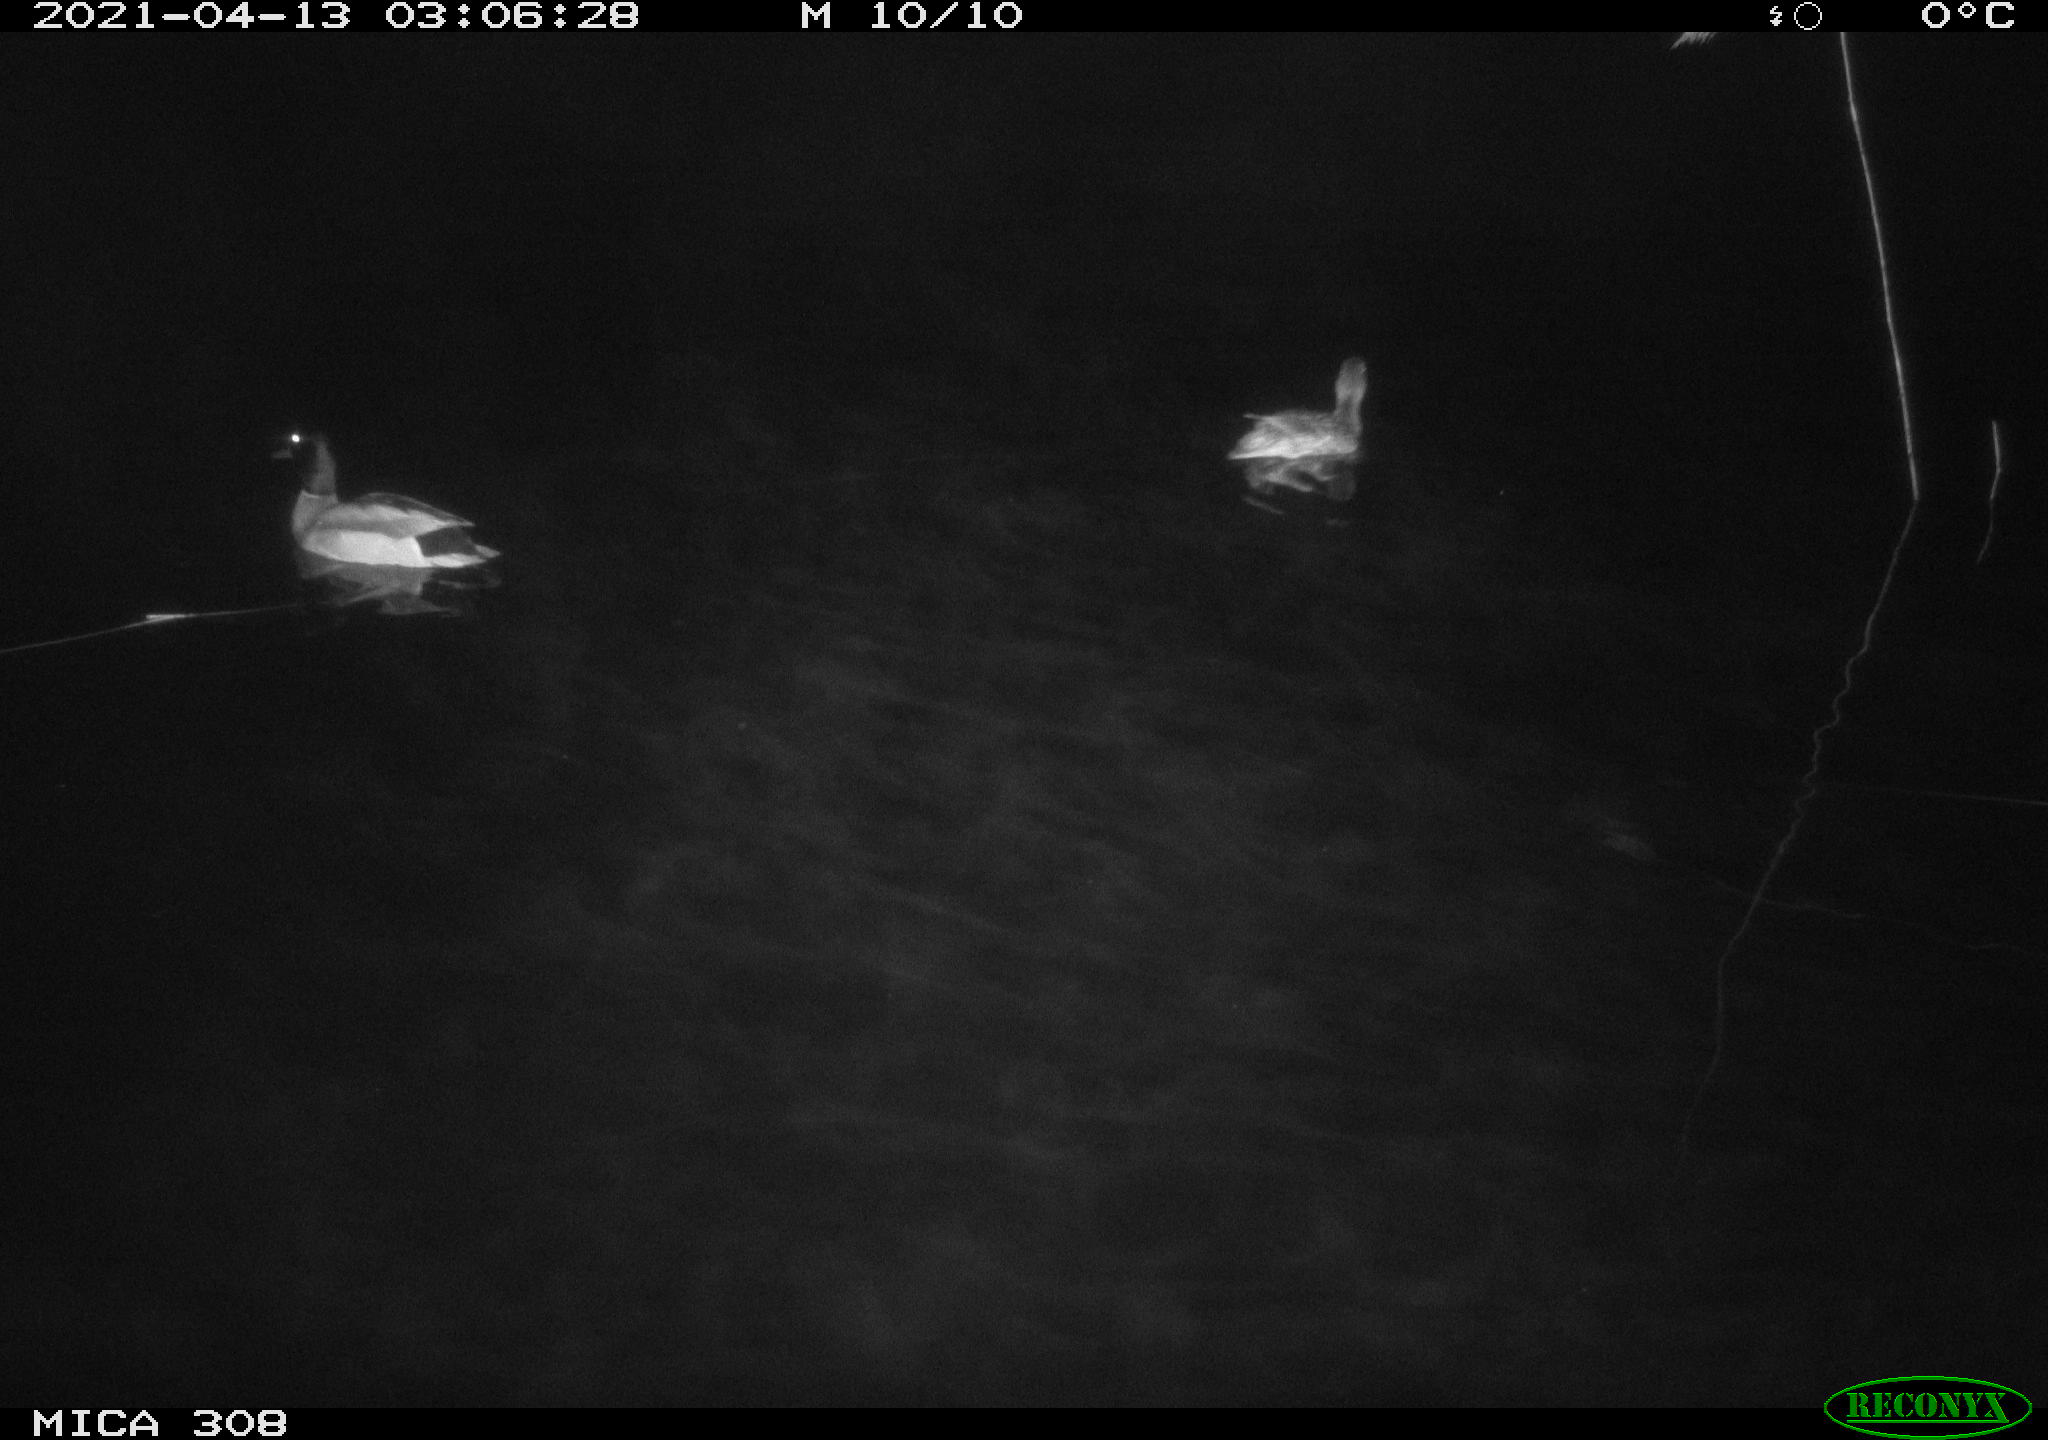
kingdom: Animalia
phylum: Chordata
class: Aves
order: Anseriformes
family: Anatidae
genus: Anas
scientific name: Anas platyrhynchos
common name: Mallard
